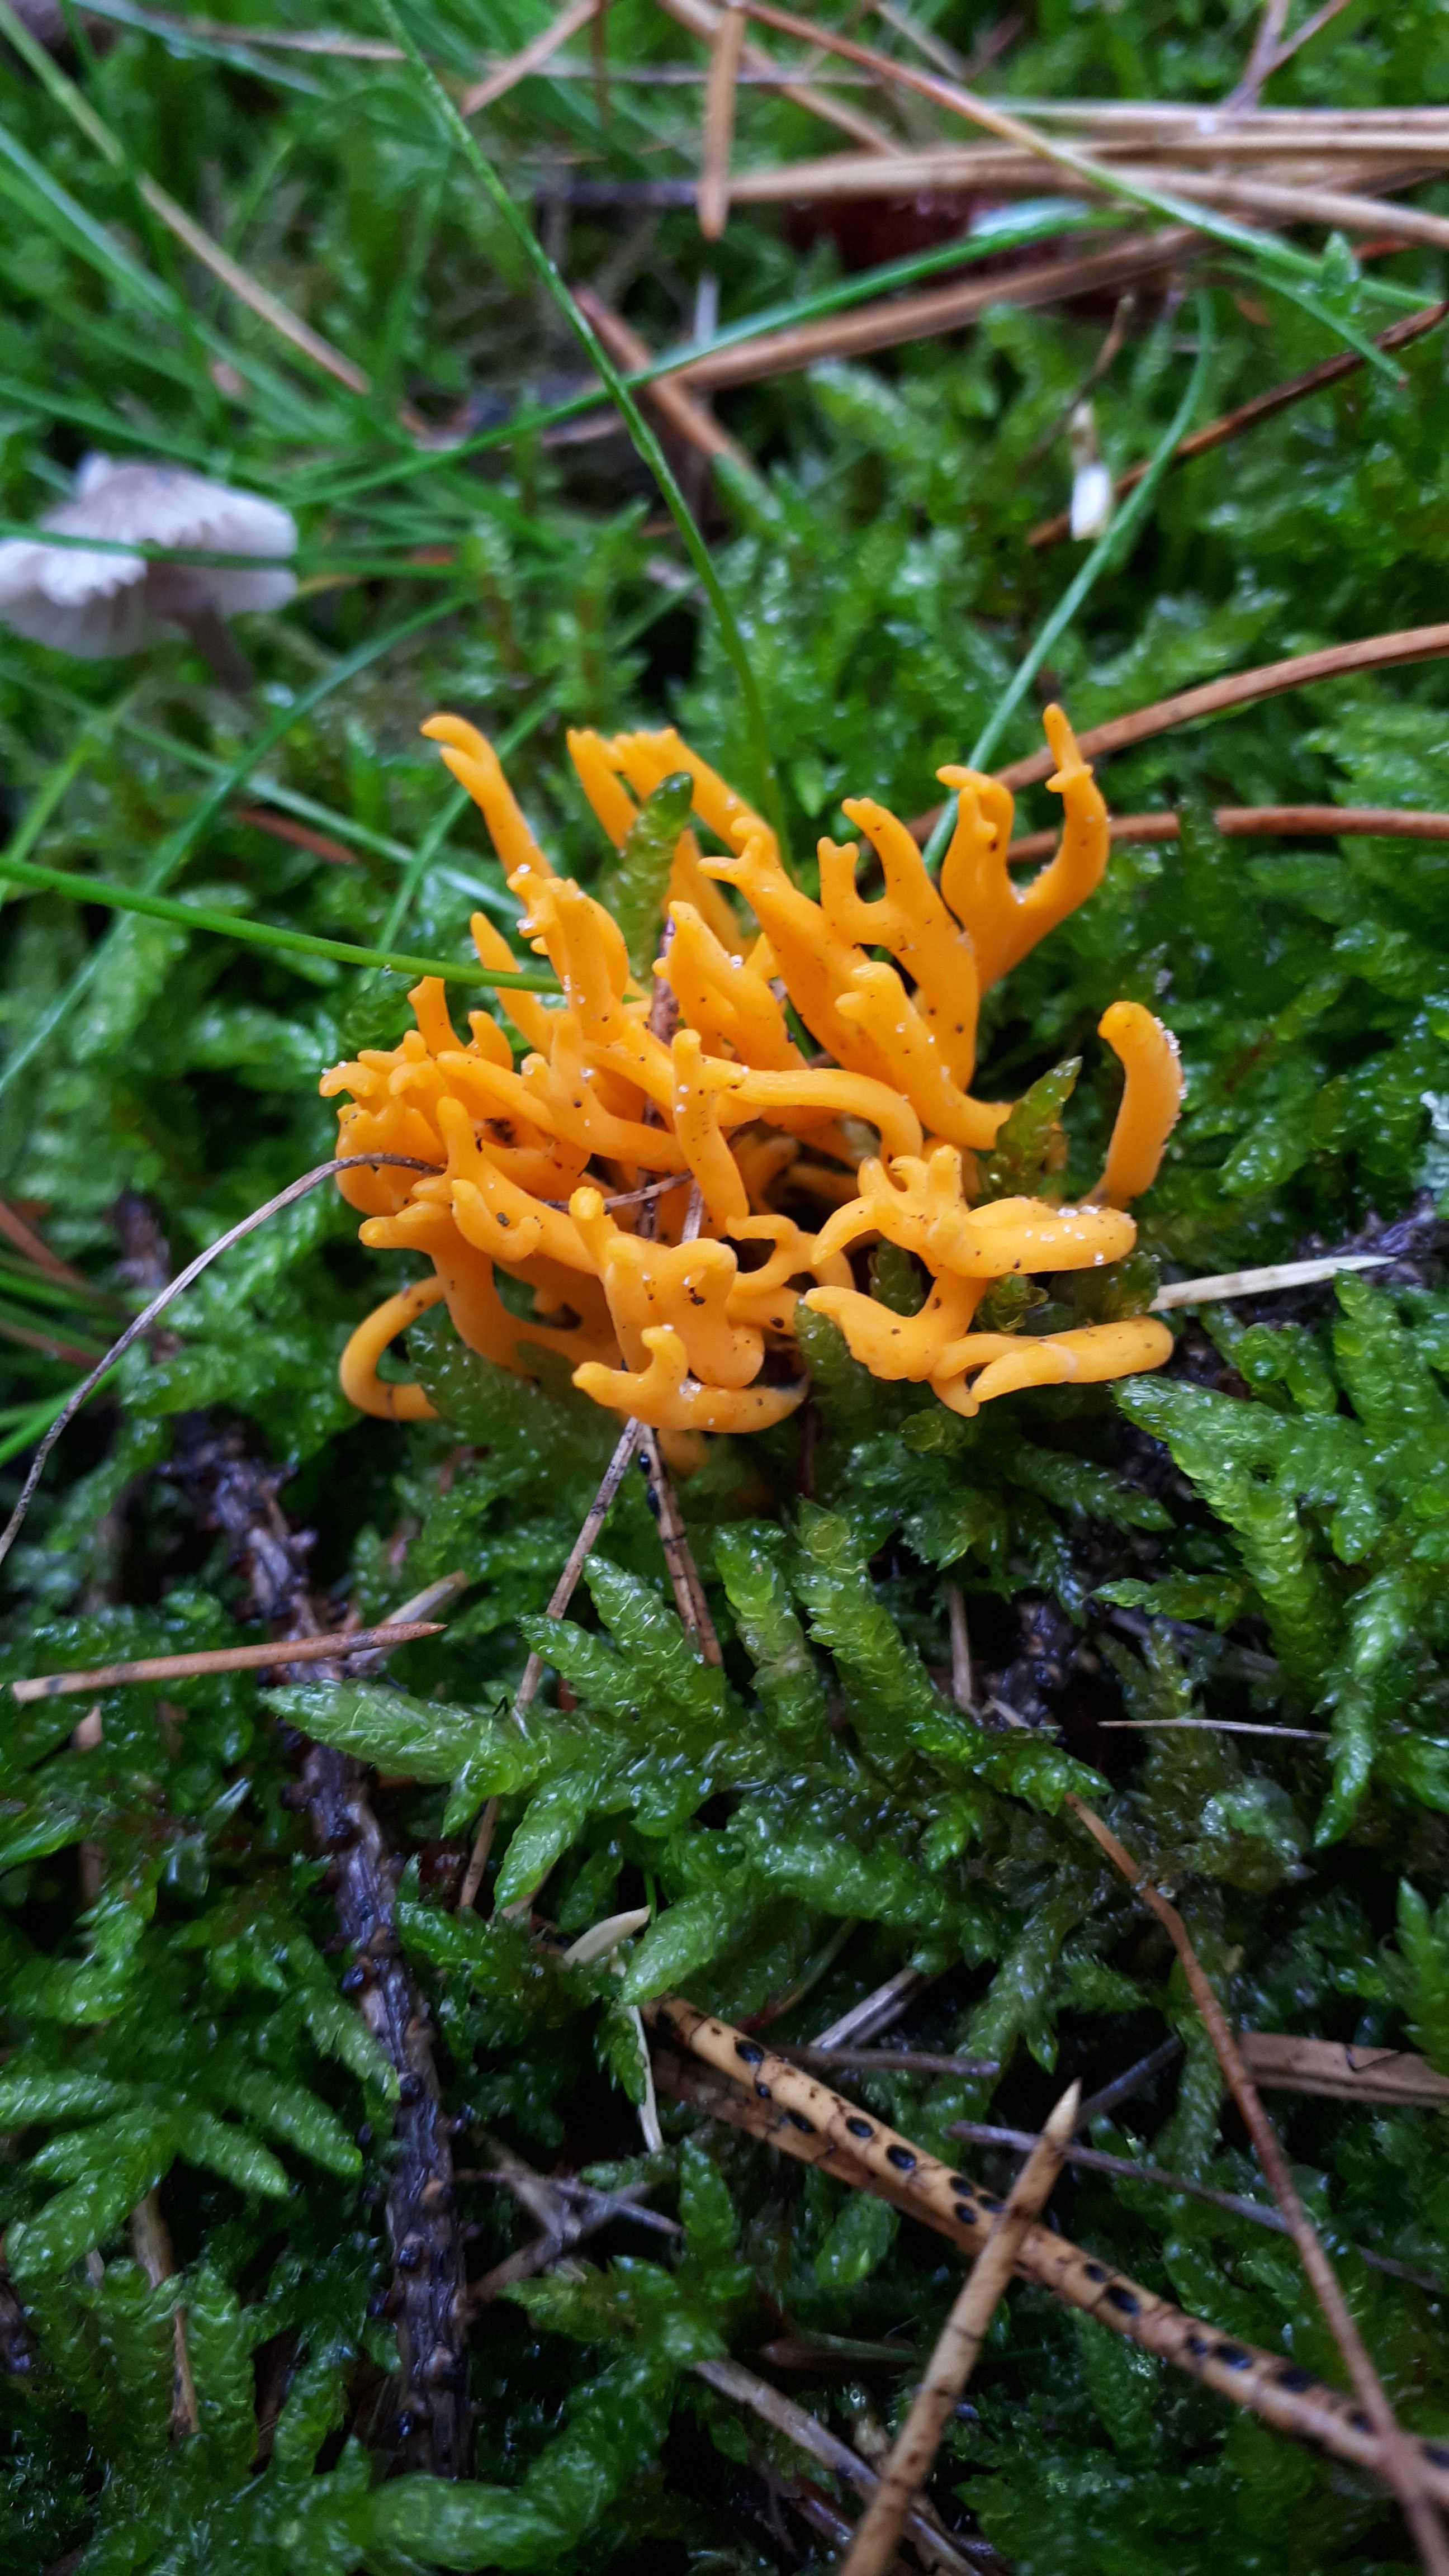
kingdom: Fungi
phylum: Basidiomycota
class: Dacrymycetes
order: Dacrymycetales
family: Dacrymycetaceae
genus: Calocera
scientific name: Calocera viscosa
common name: almindelig guldgaffel
